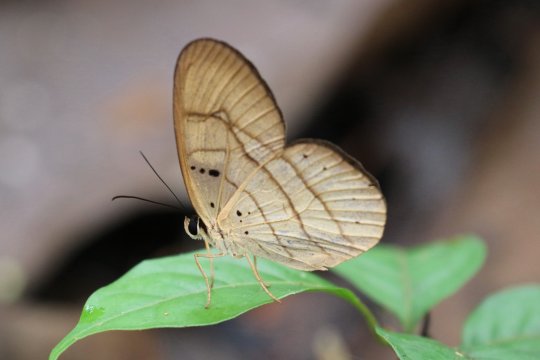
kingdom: Animalia
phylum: Arthropoda
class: Insecta
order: Lepidoptera
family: Nymphalidae
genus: Pierella
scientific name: Pierella hortona
